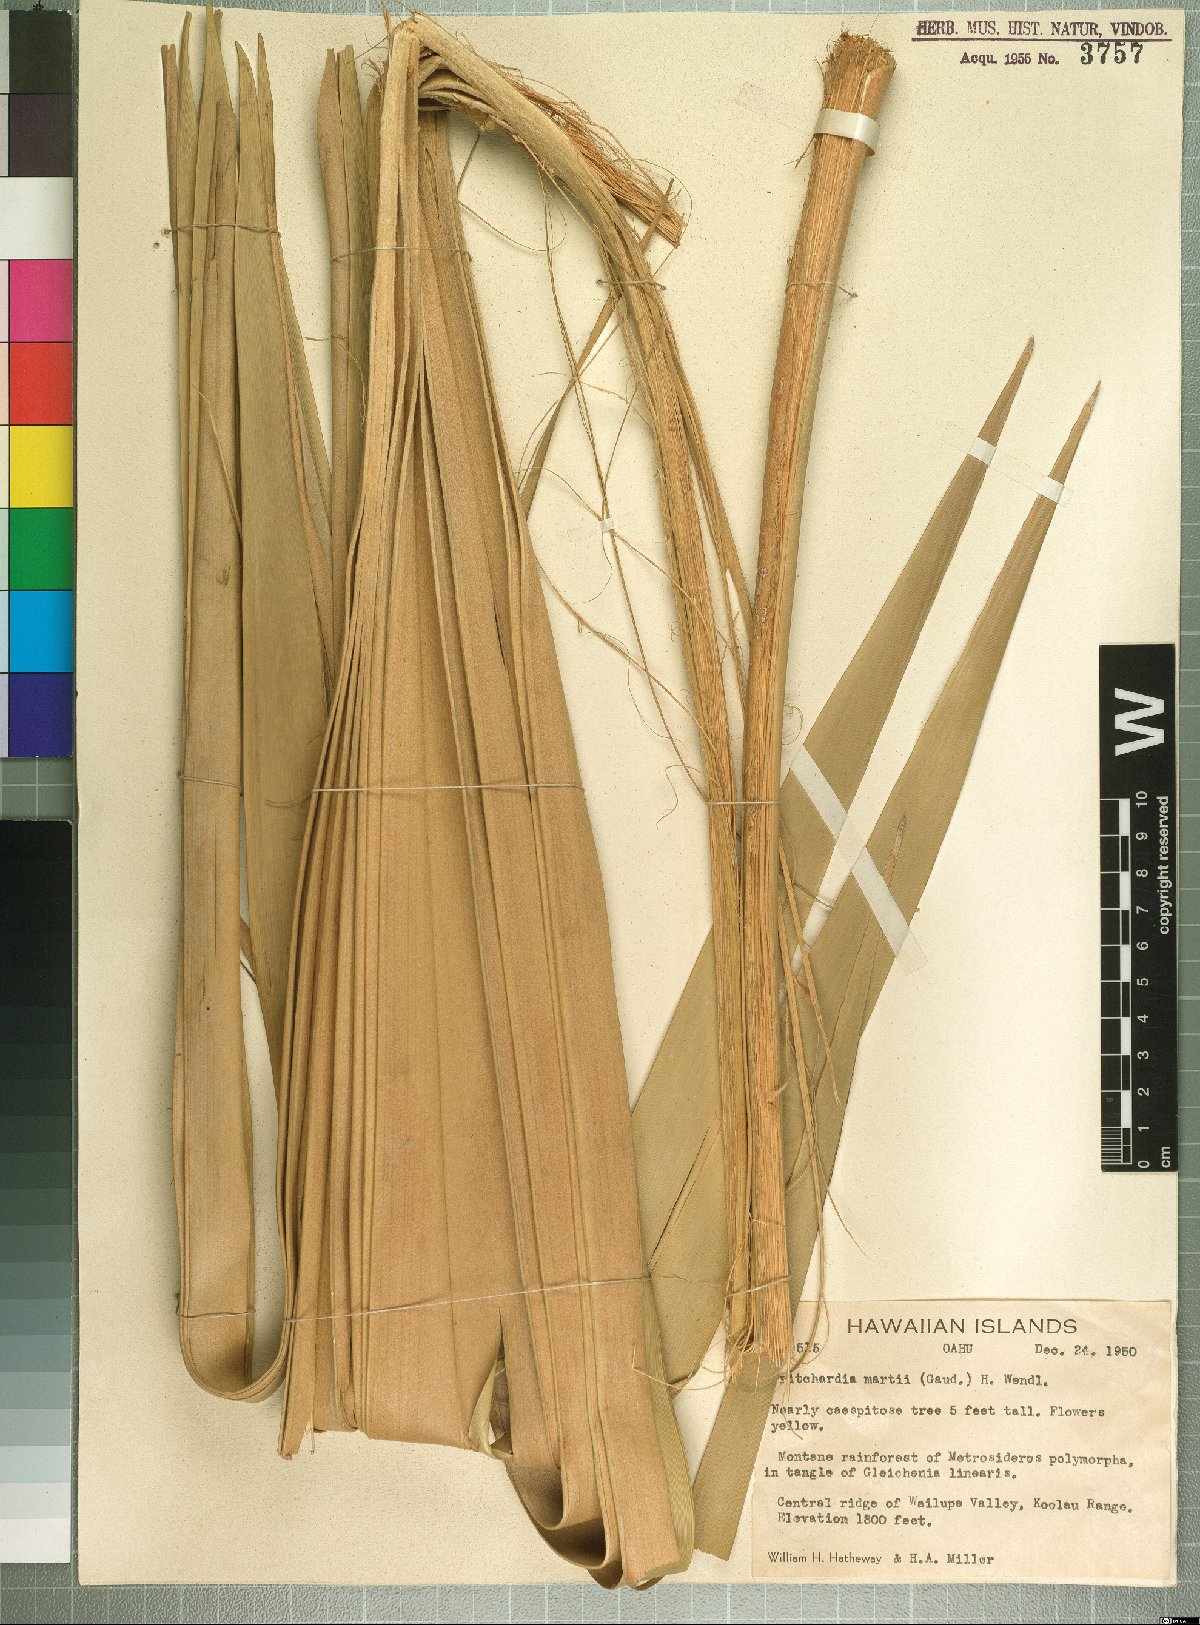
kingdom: Plantae
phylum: Tracheophyta
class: Liliopsida
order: Arecales
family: Arecaceae
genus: Pritchardia
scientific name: Pritchardia martii
